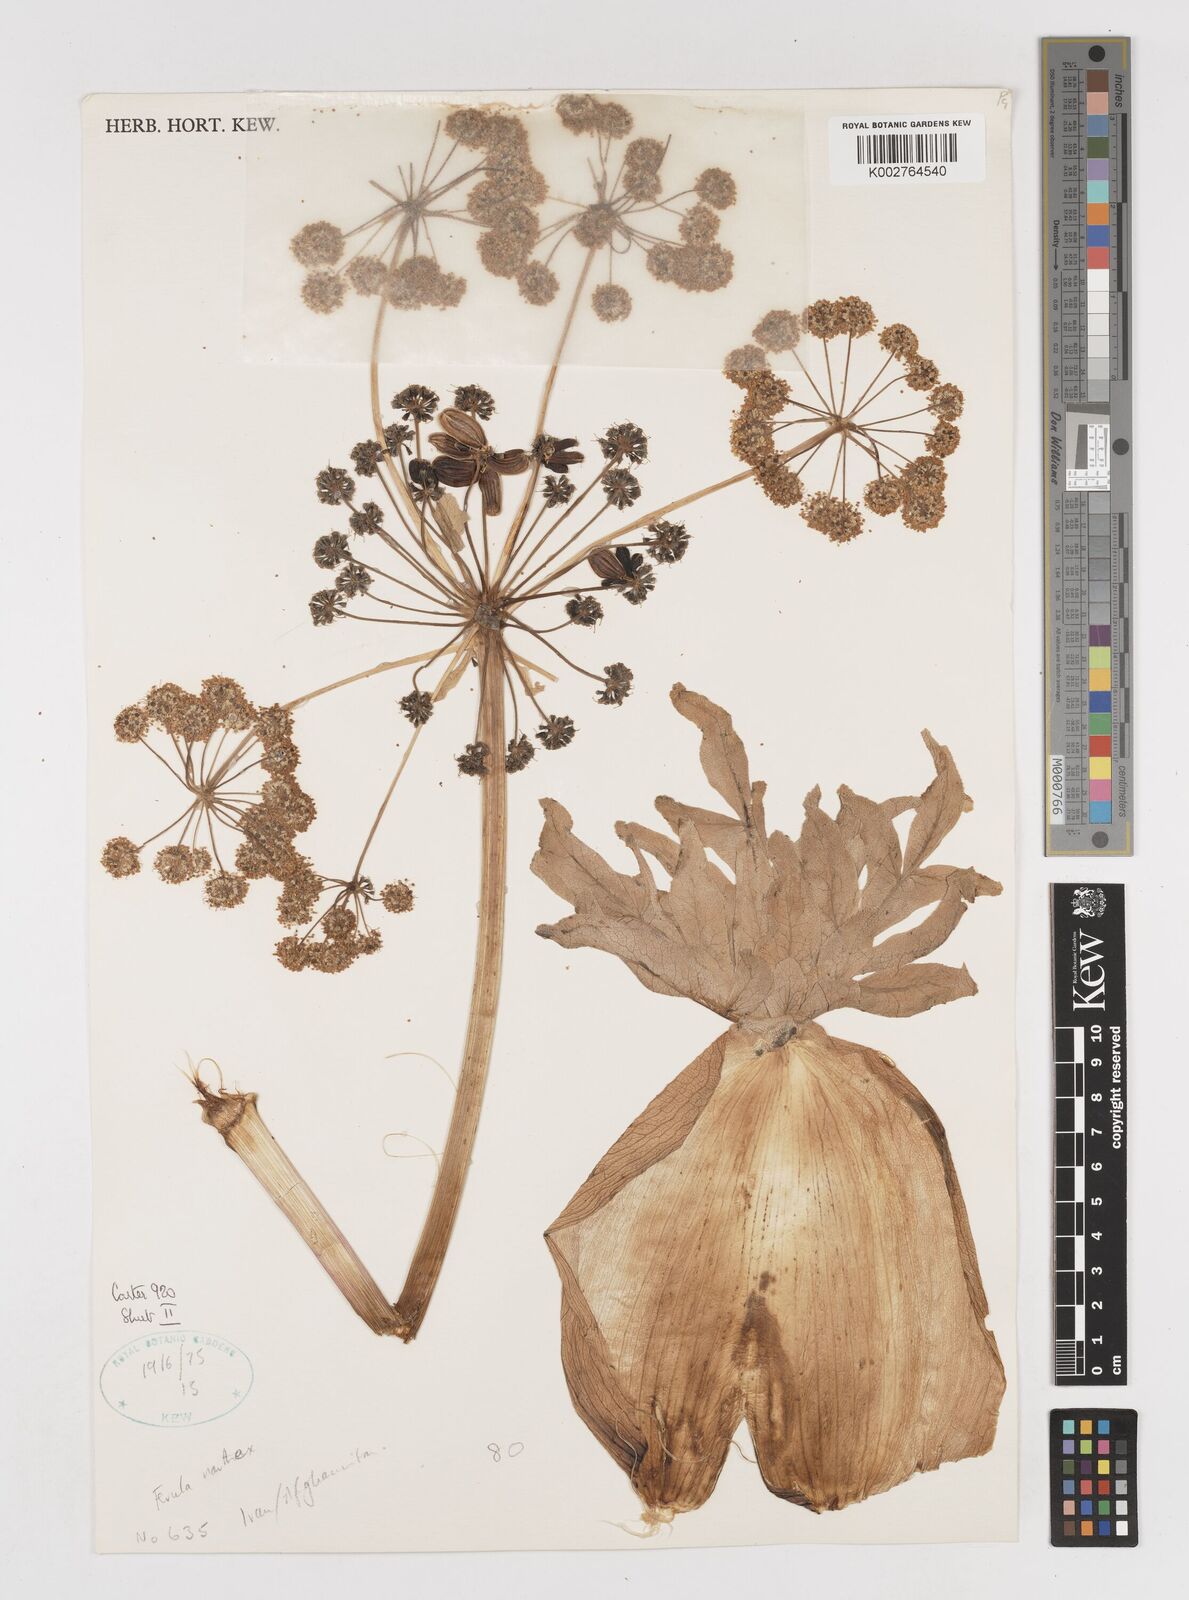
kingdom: Plantae
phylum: Tracheophyta
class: Magnoliopsida
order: Apiales
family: Apiaceae
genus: Ferula
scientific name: Ferula narthex
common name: Hing asafetida
